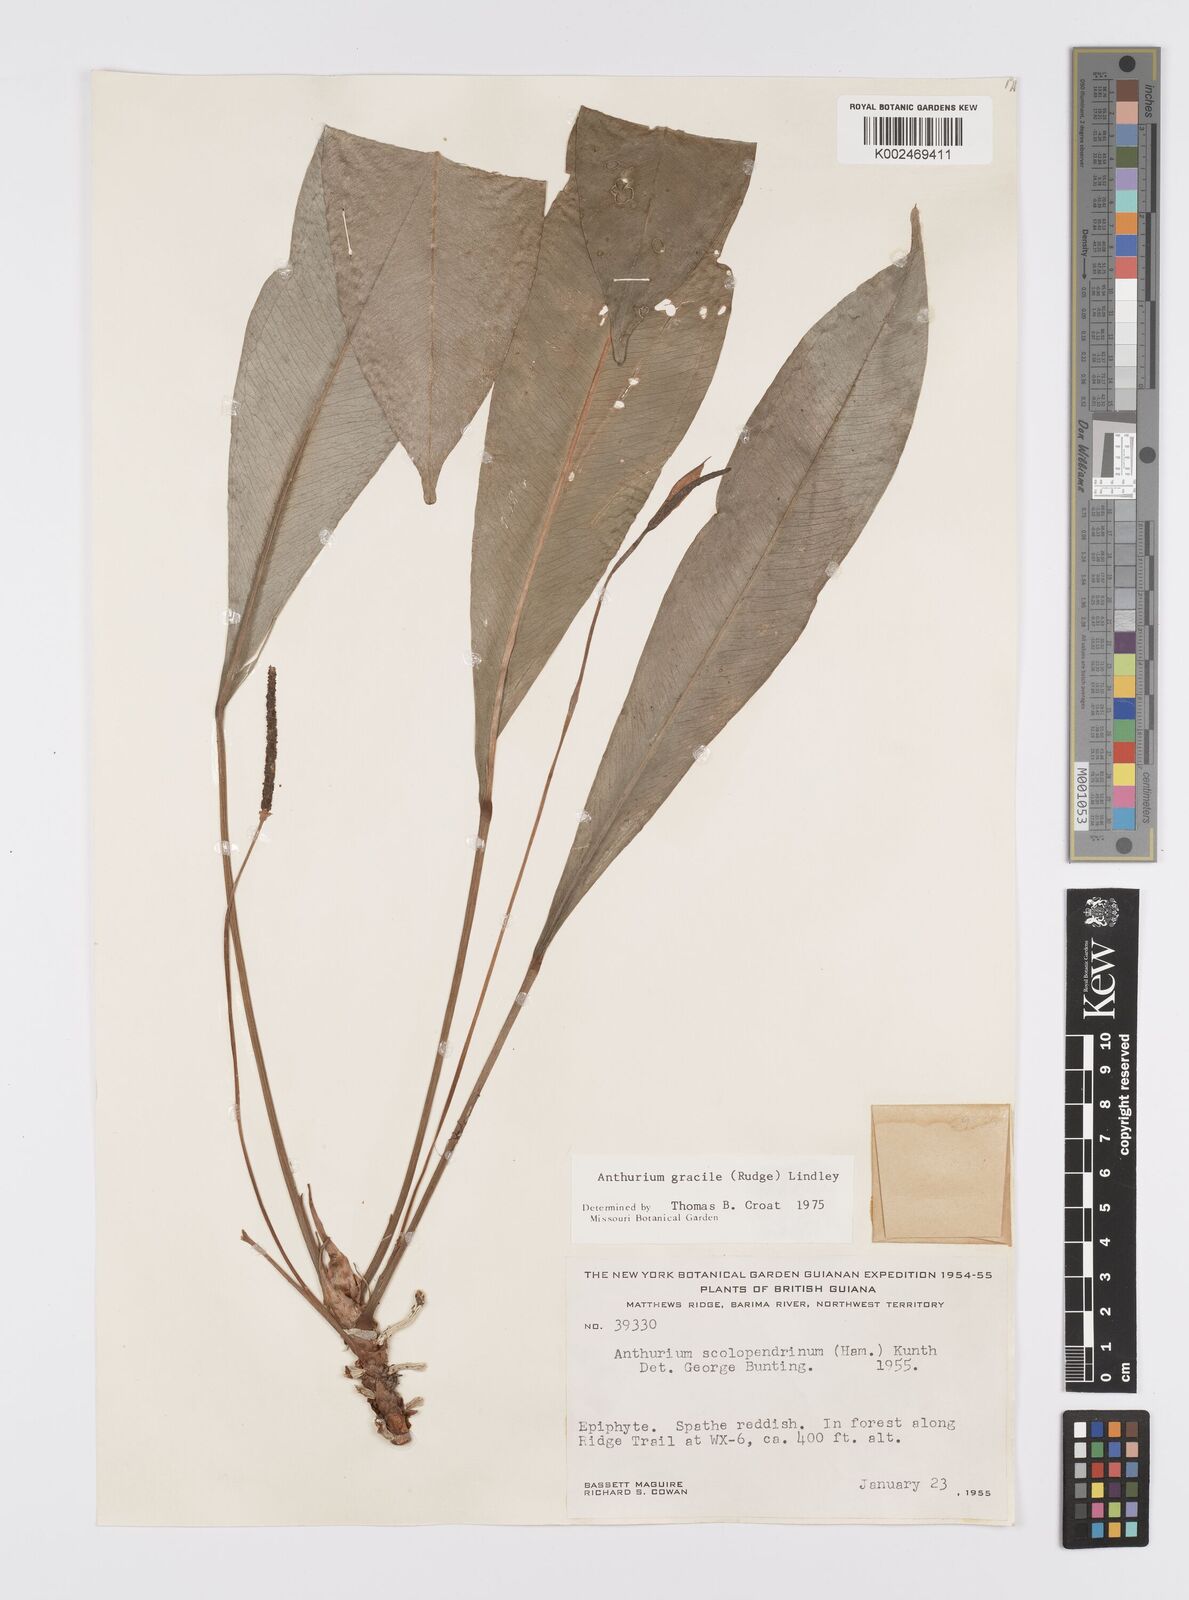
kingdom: Plantae
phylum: Tracheophyta
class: Liliopsida
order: Alismatales
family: Araceae
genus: Anthurium
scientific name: Anthurium gracile
